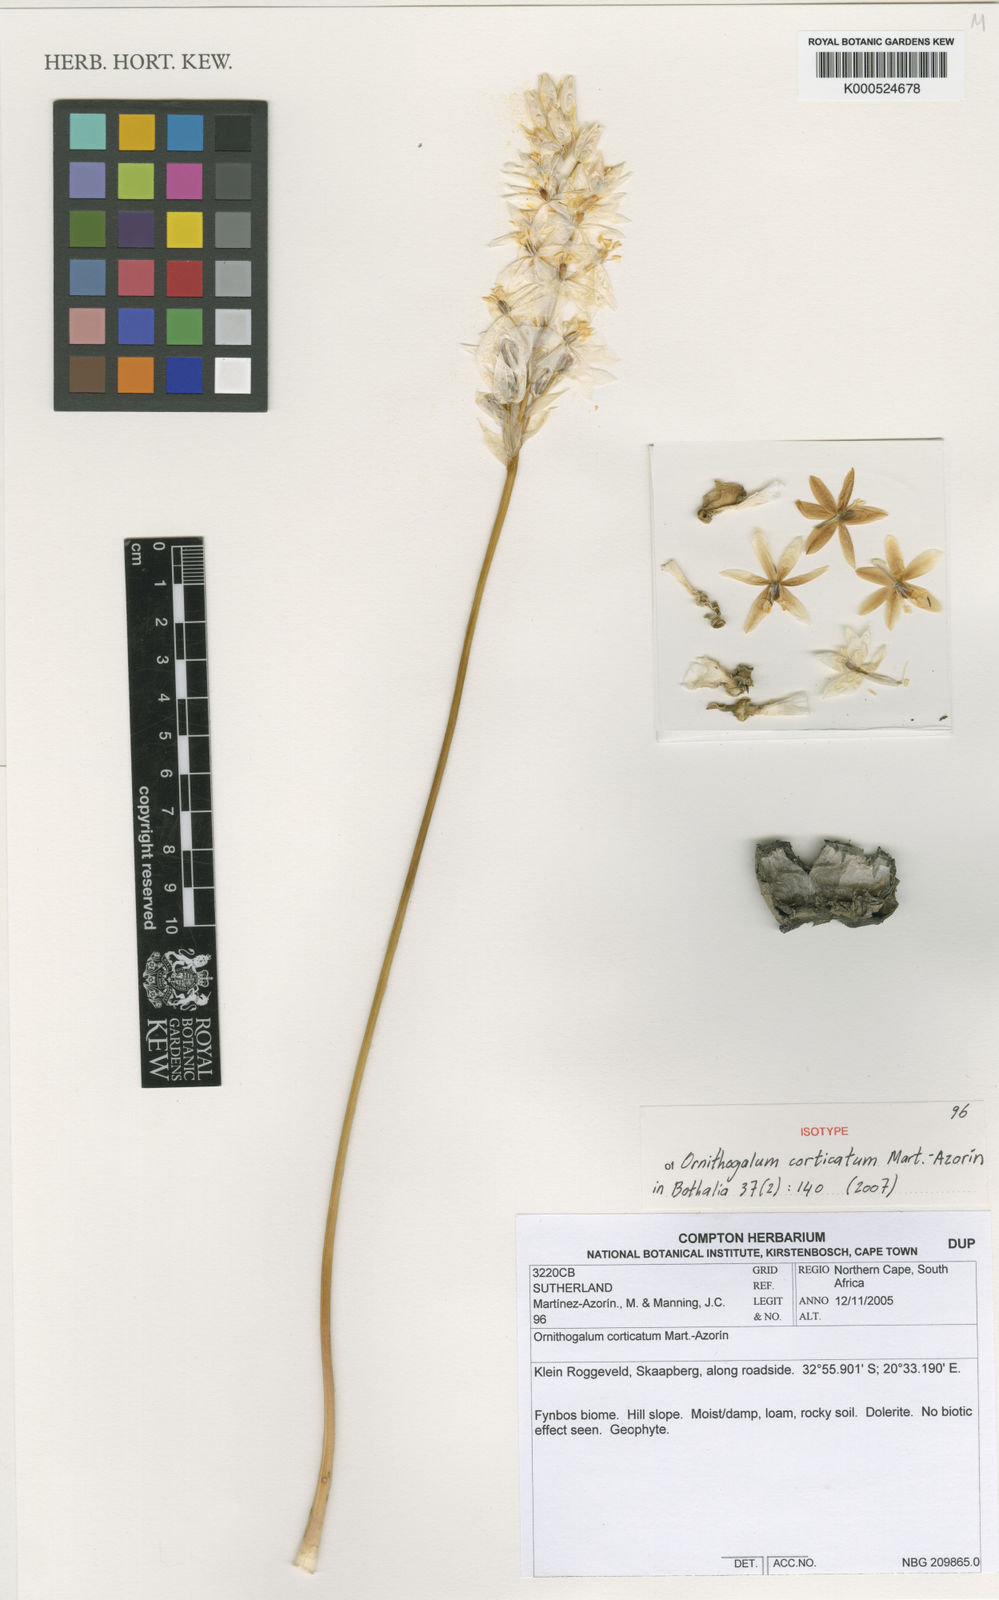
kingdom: Plantae
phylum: Tracheophyta
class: Liliopsida
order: Asparagales
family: Asparagaceae
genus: Ornithogalum
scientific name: Ornithogalum
